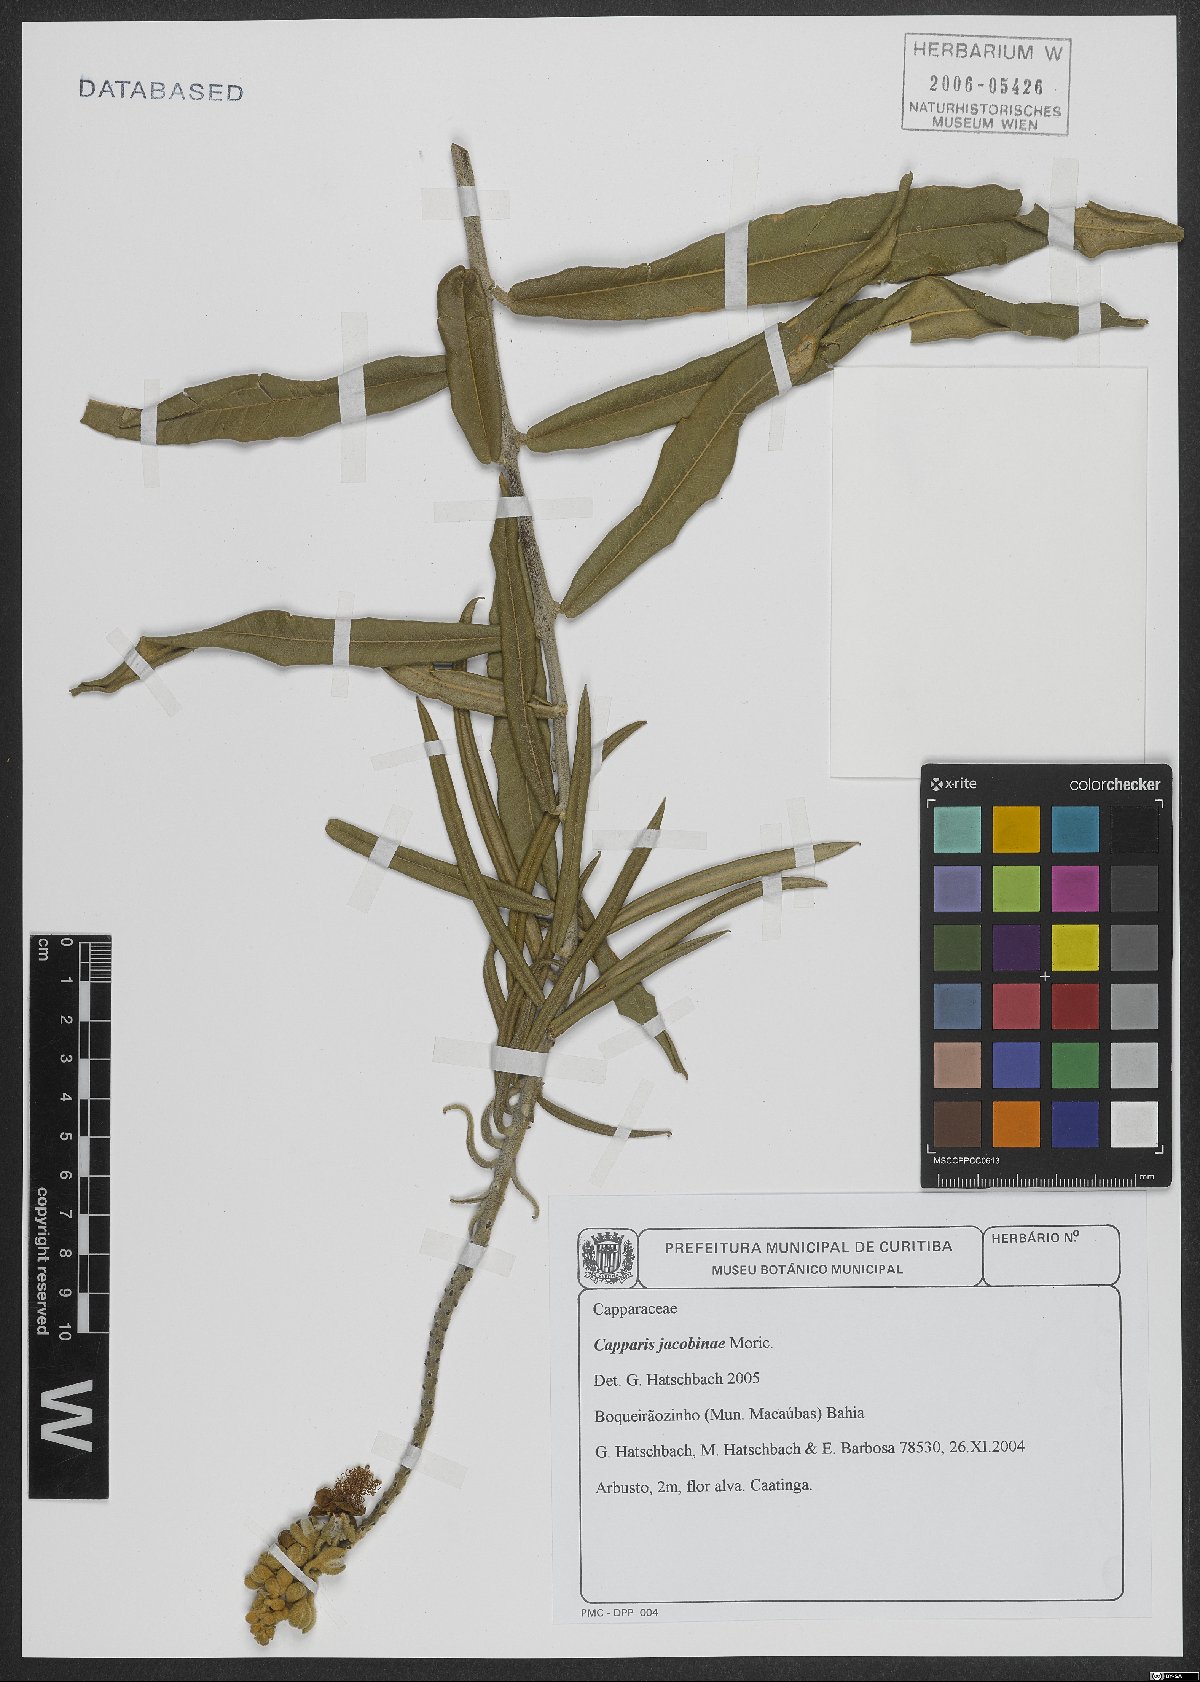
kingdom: Plantae
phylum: Tracheophyta
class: Magnoliopsida
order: Brassicales
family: Capparaceae
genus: Neocalyptrocalyx
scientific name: Neocalyptrocalyx longifolium
